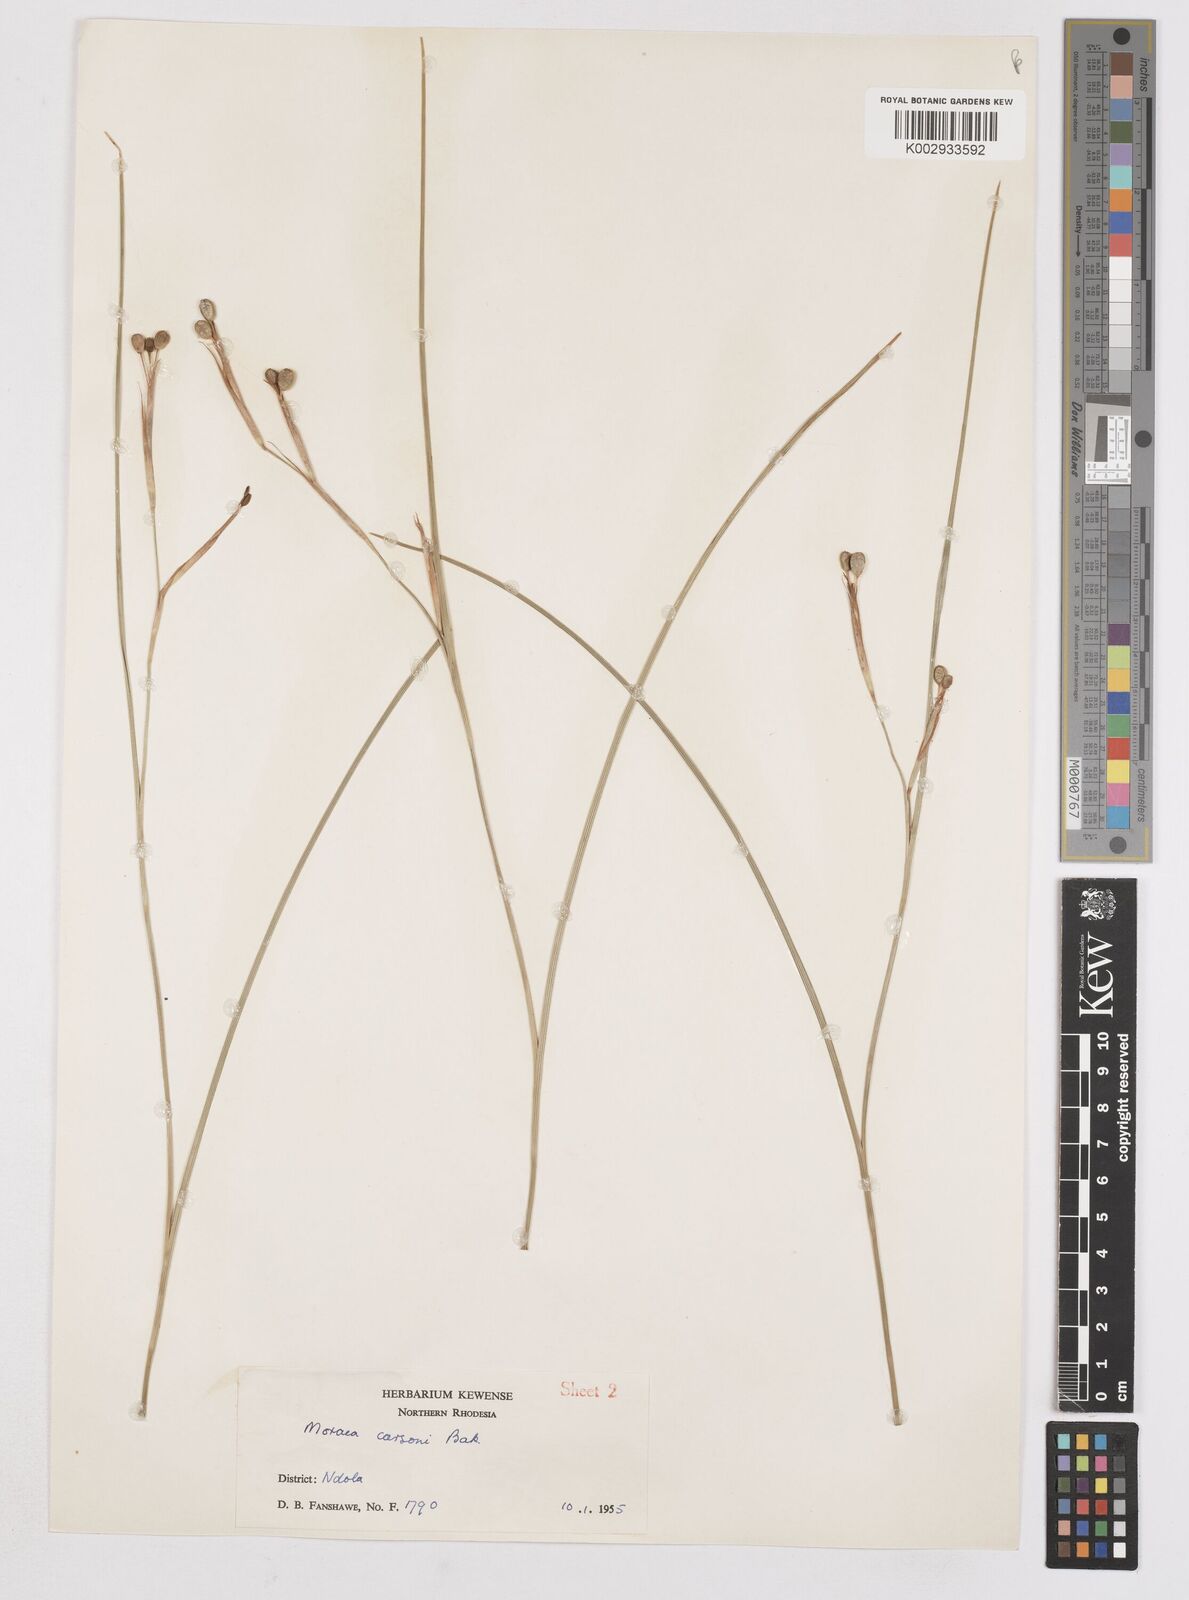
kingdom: Plantae
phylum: Tracheophyta
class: Liliopsida
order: Asparagales
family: Iridaceae
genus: Moraea
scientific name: Moraea carsonii
